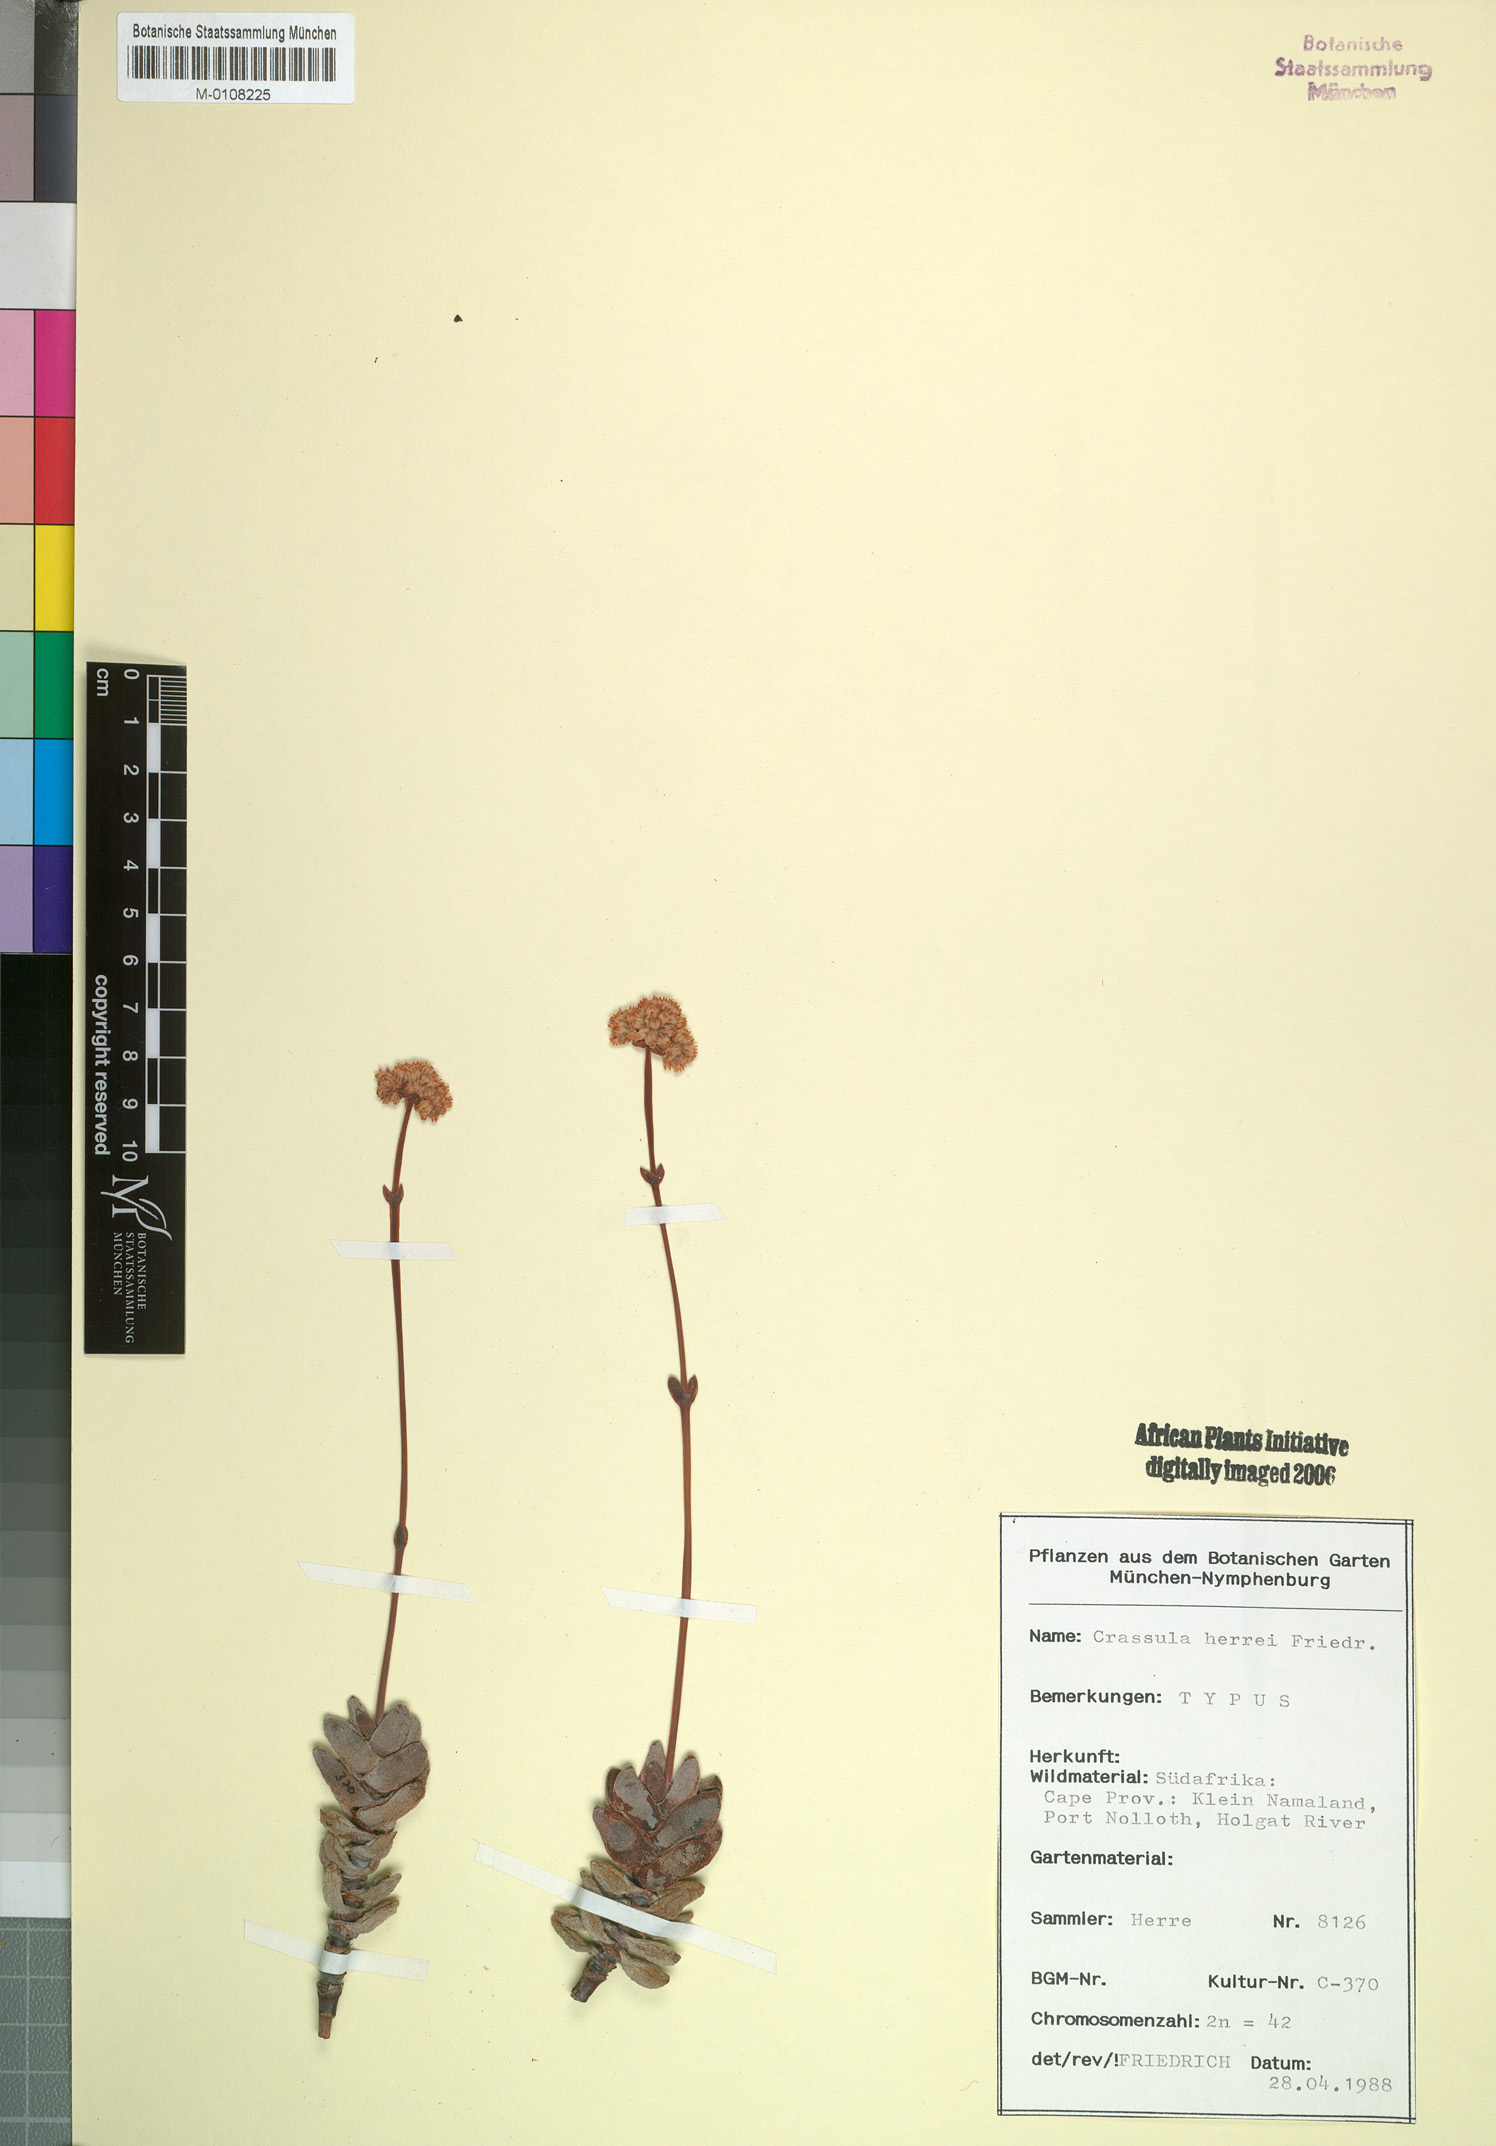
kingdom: Plantae
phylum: Tracheophyta
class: Magnoliopsida
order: Saxifragales
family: Crassulaceae
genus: Crassula
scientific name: Crassula nudicaulis
